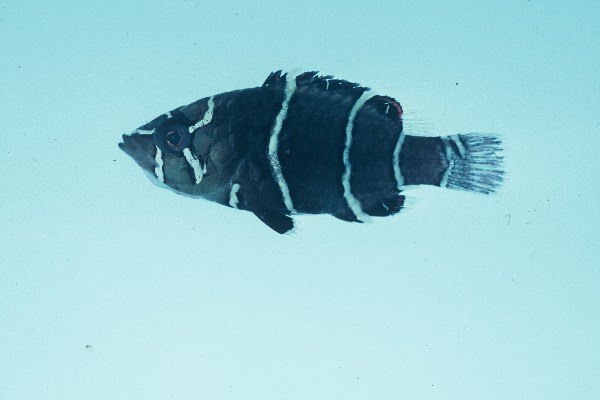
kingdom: Animalia
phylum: Chordata
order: Perciformes
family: Labridae
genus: Epibulus
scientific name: Epibulus insidiator
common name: Slingjaw wrasse
